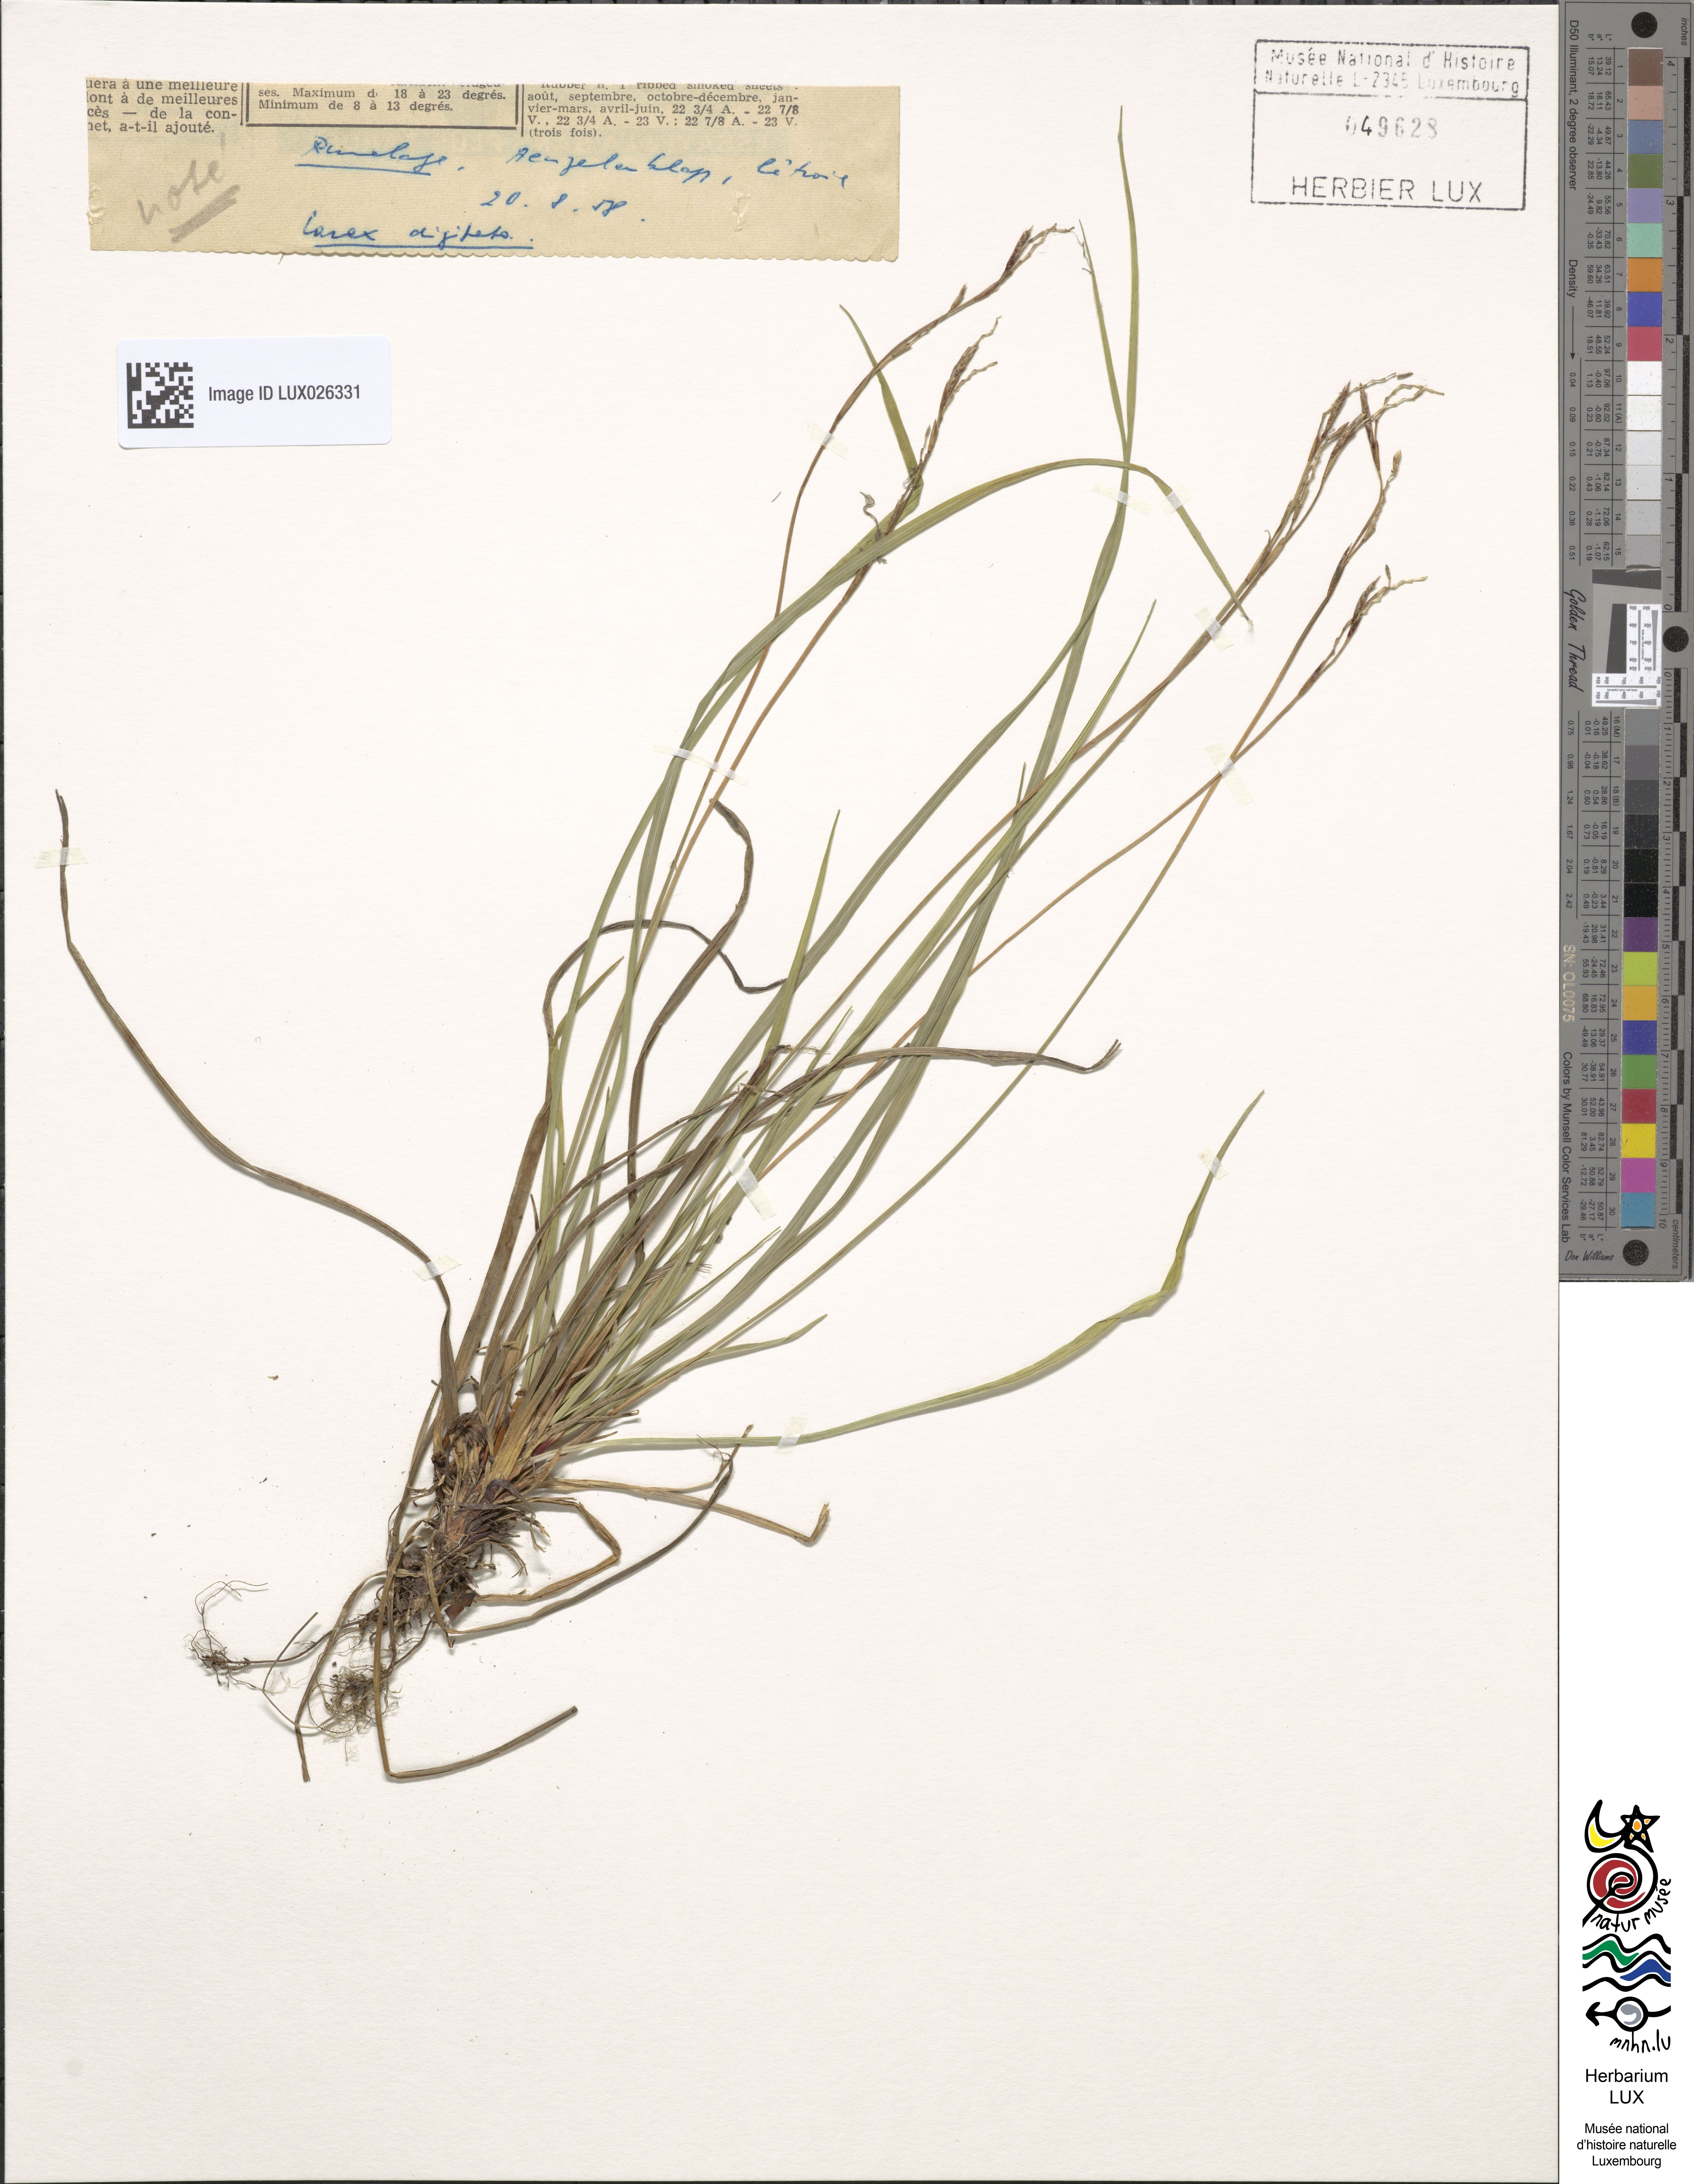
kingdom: Plantae
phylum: Tracheophyta
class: Liliopsida
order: Poales
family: Cyperaceae
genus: Carex
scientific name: Carex digitata
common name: Fingered sedge
